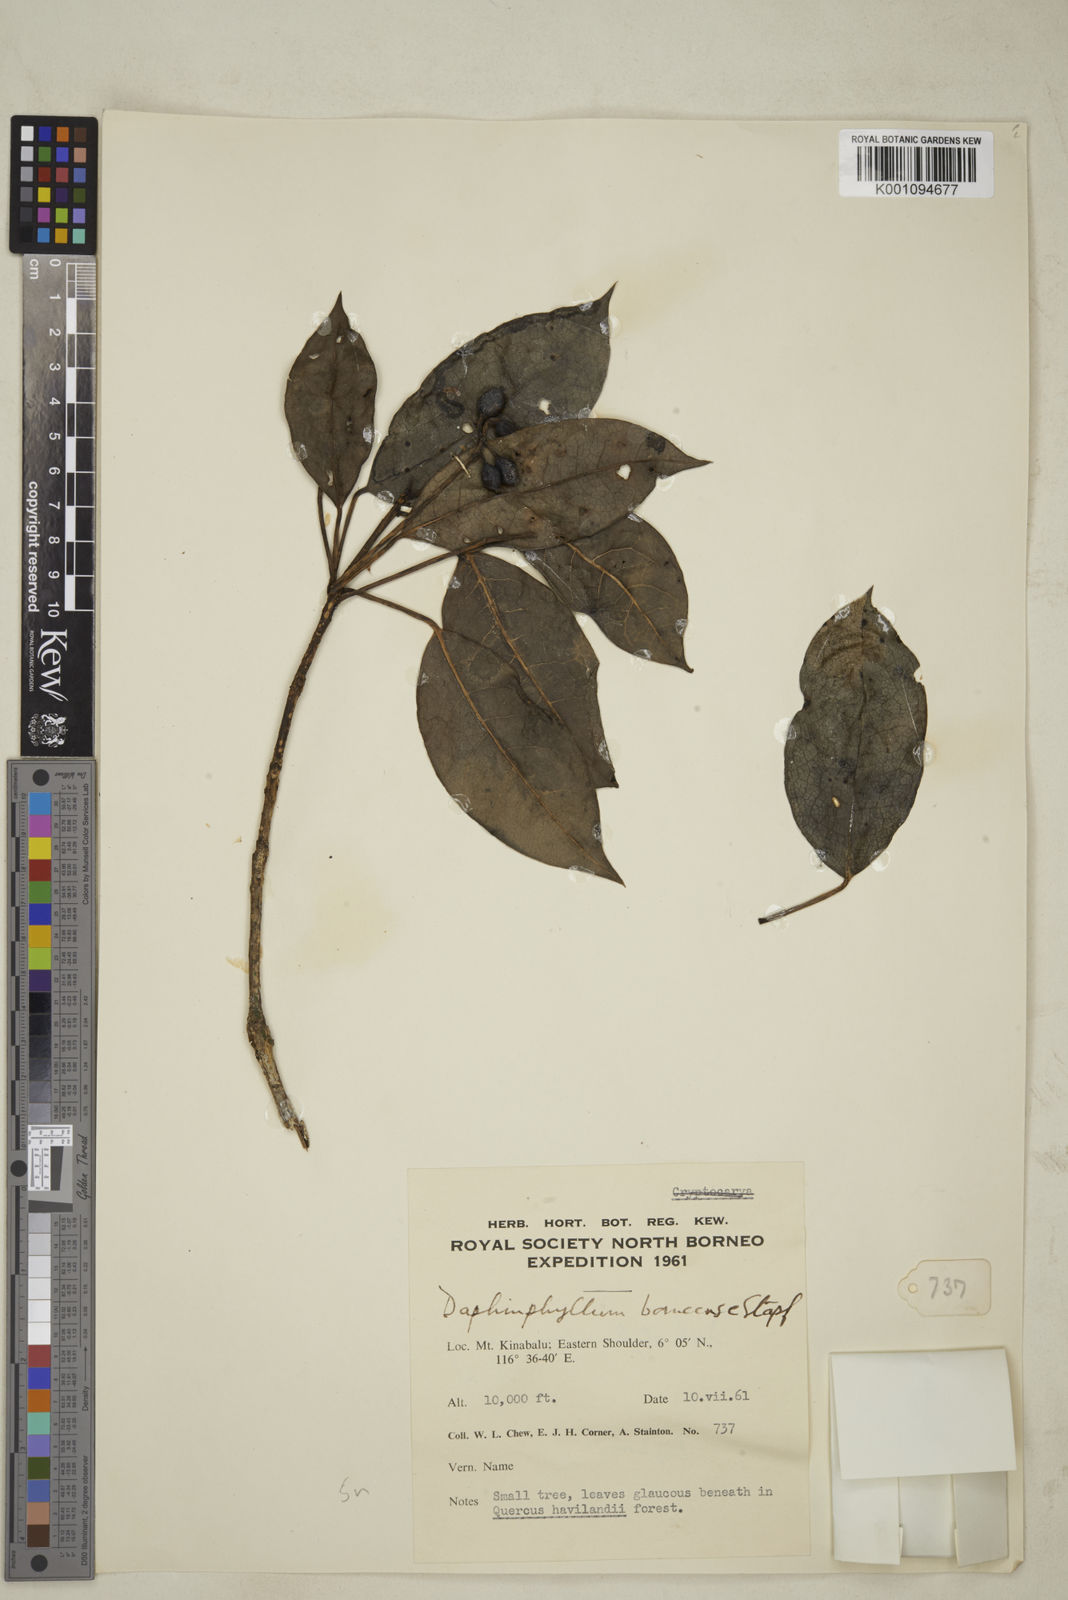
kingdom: Plantae
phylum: Tracheophyta
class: Magnoliopsida
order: Saxifragales
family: Daphniphyllaceae
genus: Daphniphyllum
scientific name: Daphniphyllum borneense
